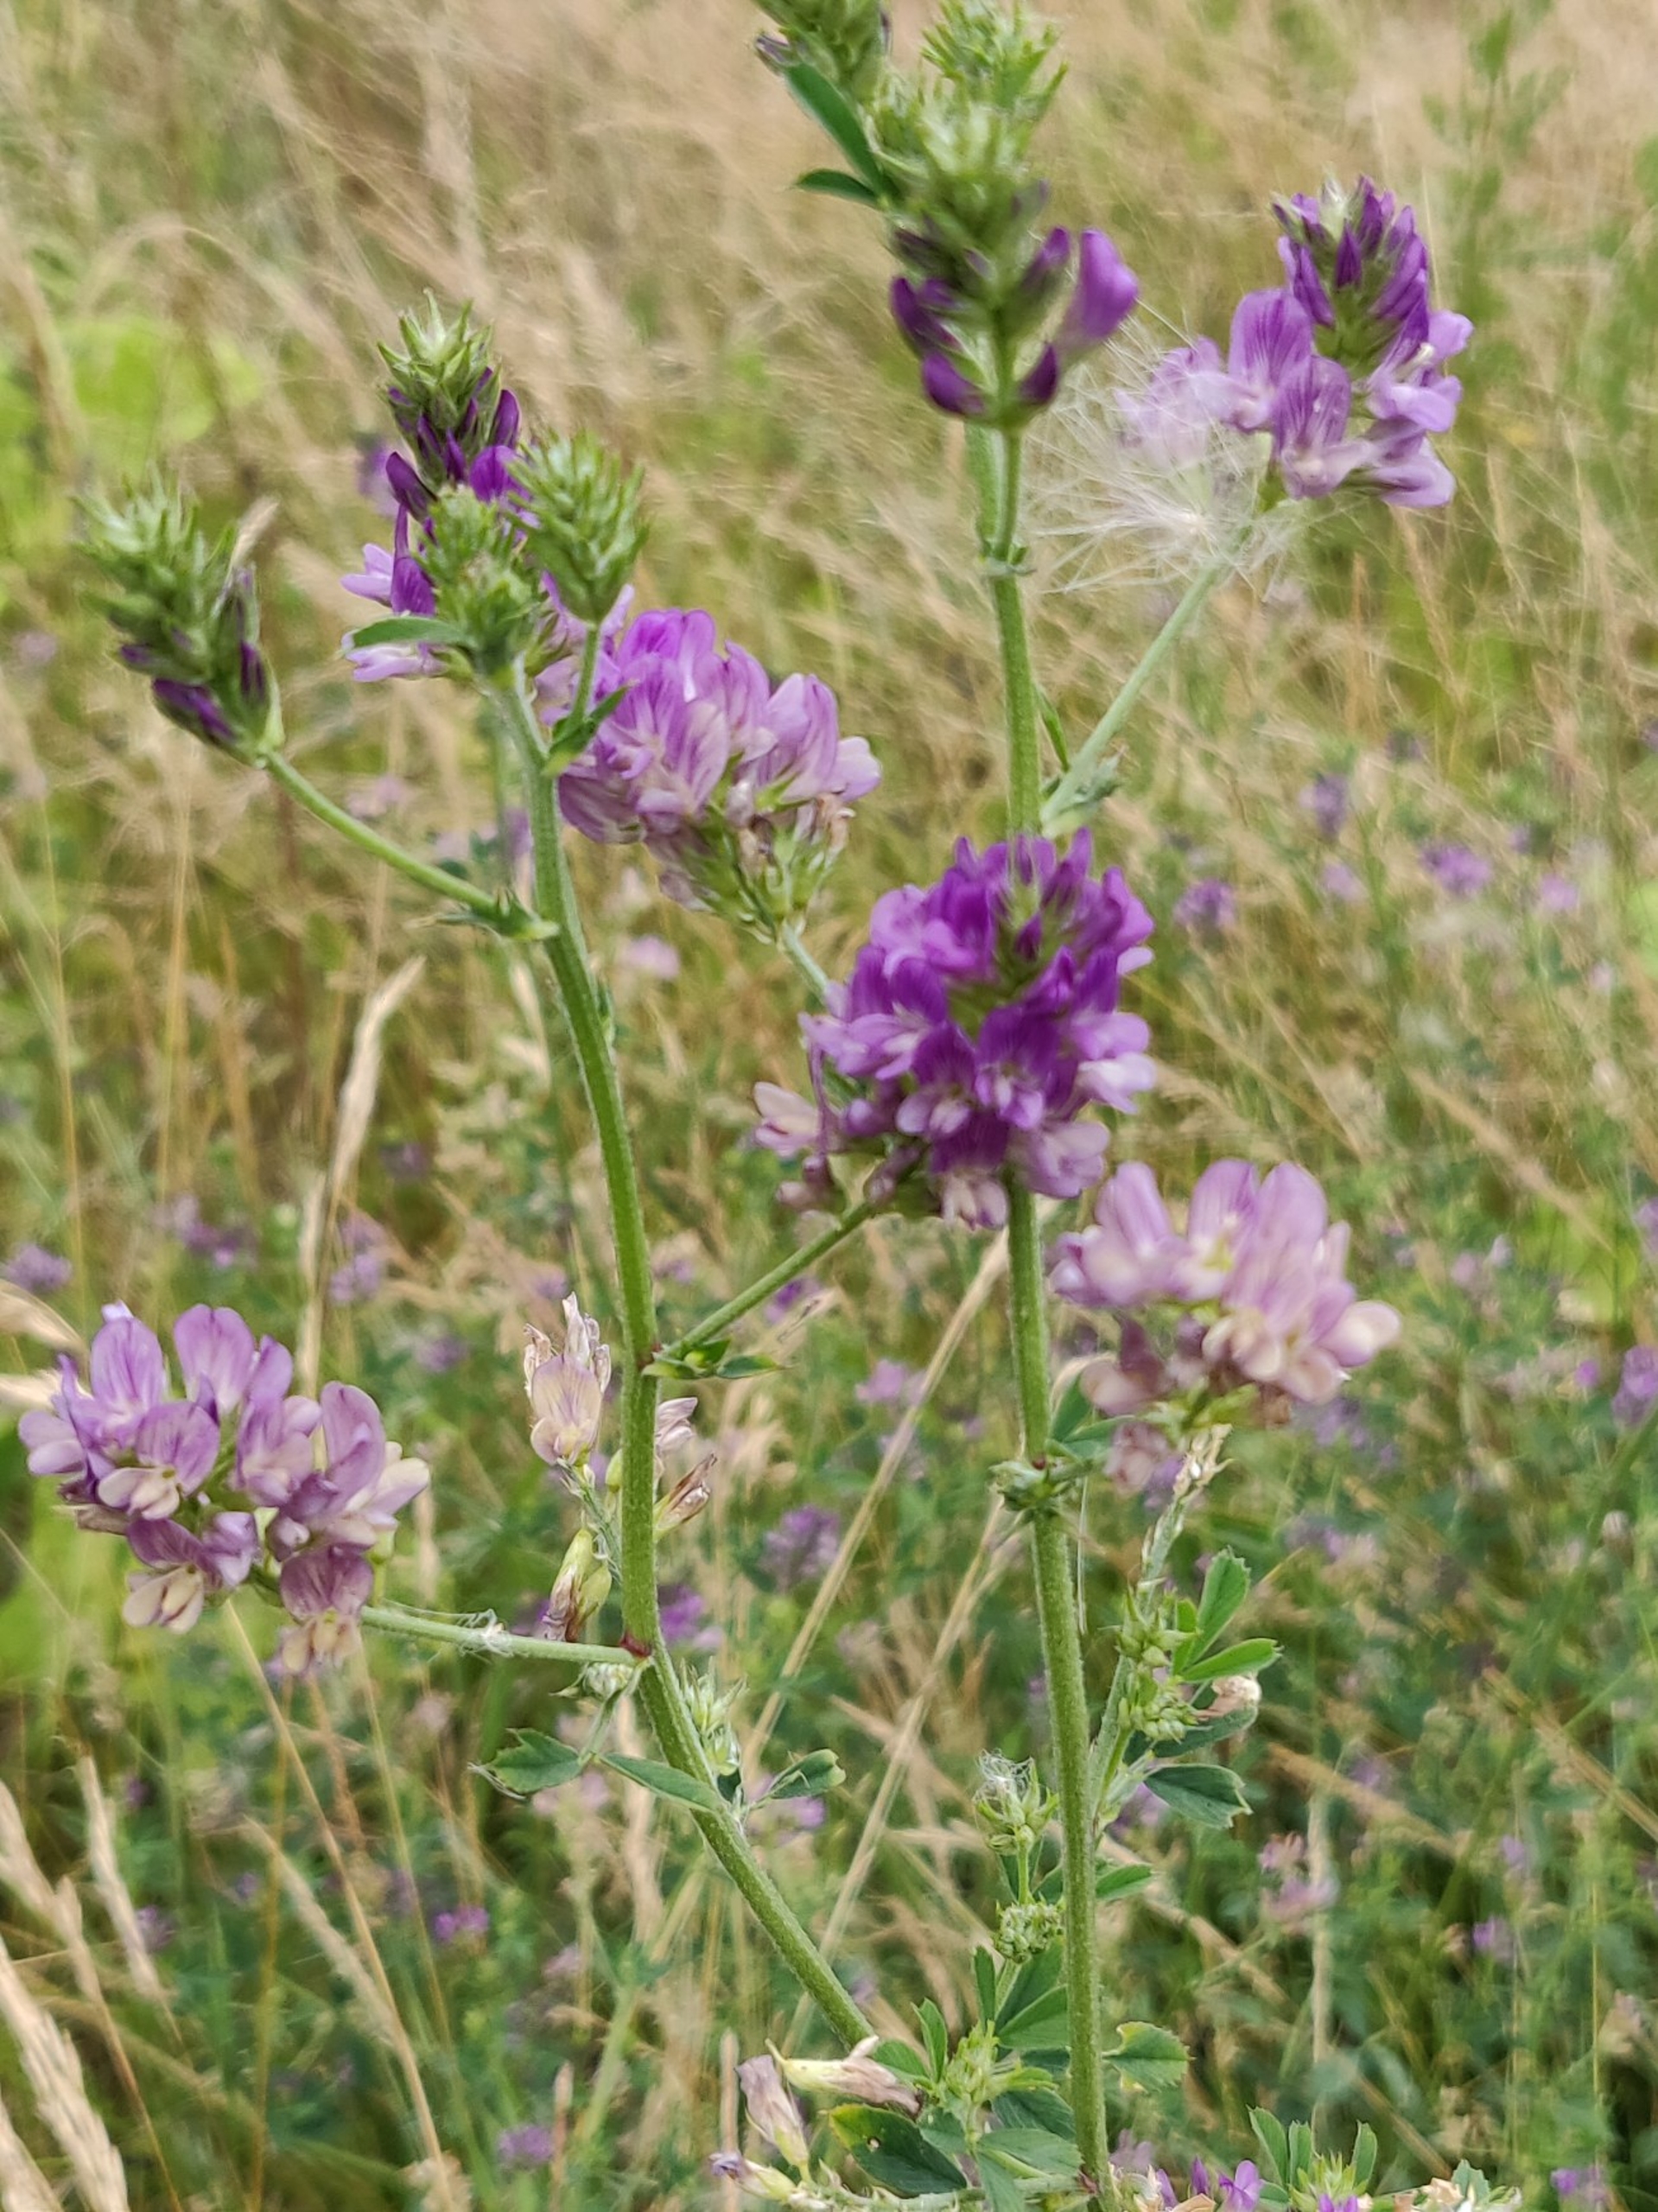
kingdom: Plantae
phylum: Tracheophyta
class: Magnoliopsida
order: Fabales
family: Fabaceae
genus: Medicago
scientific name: Medicago sativa
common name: Lucerne
